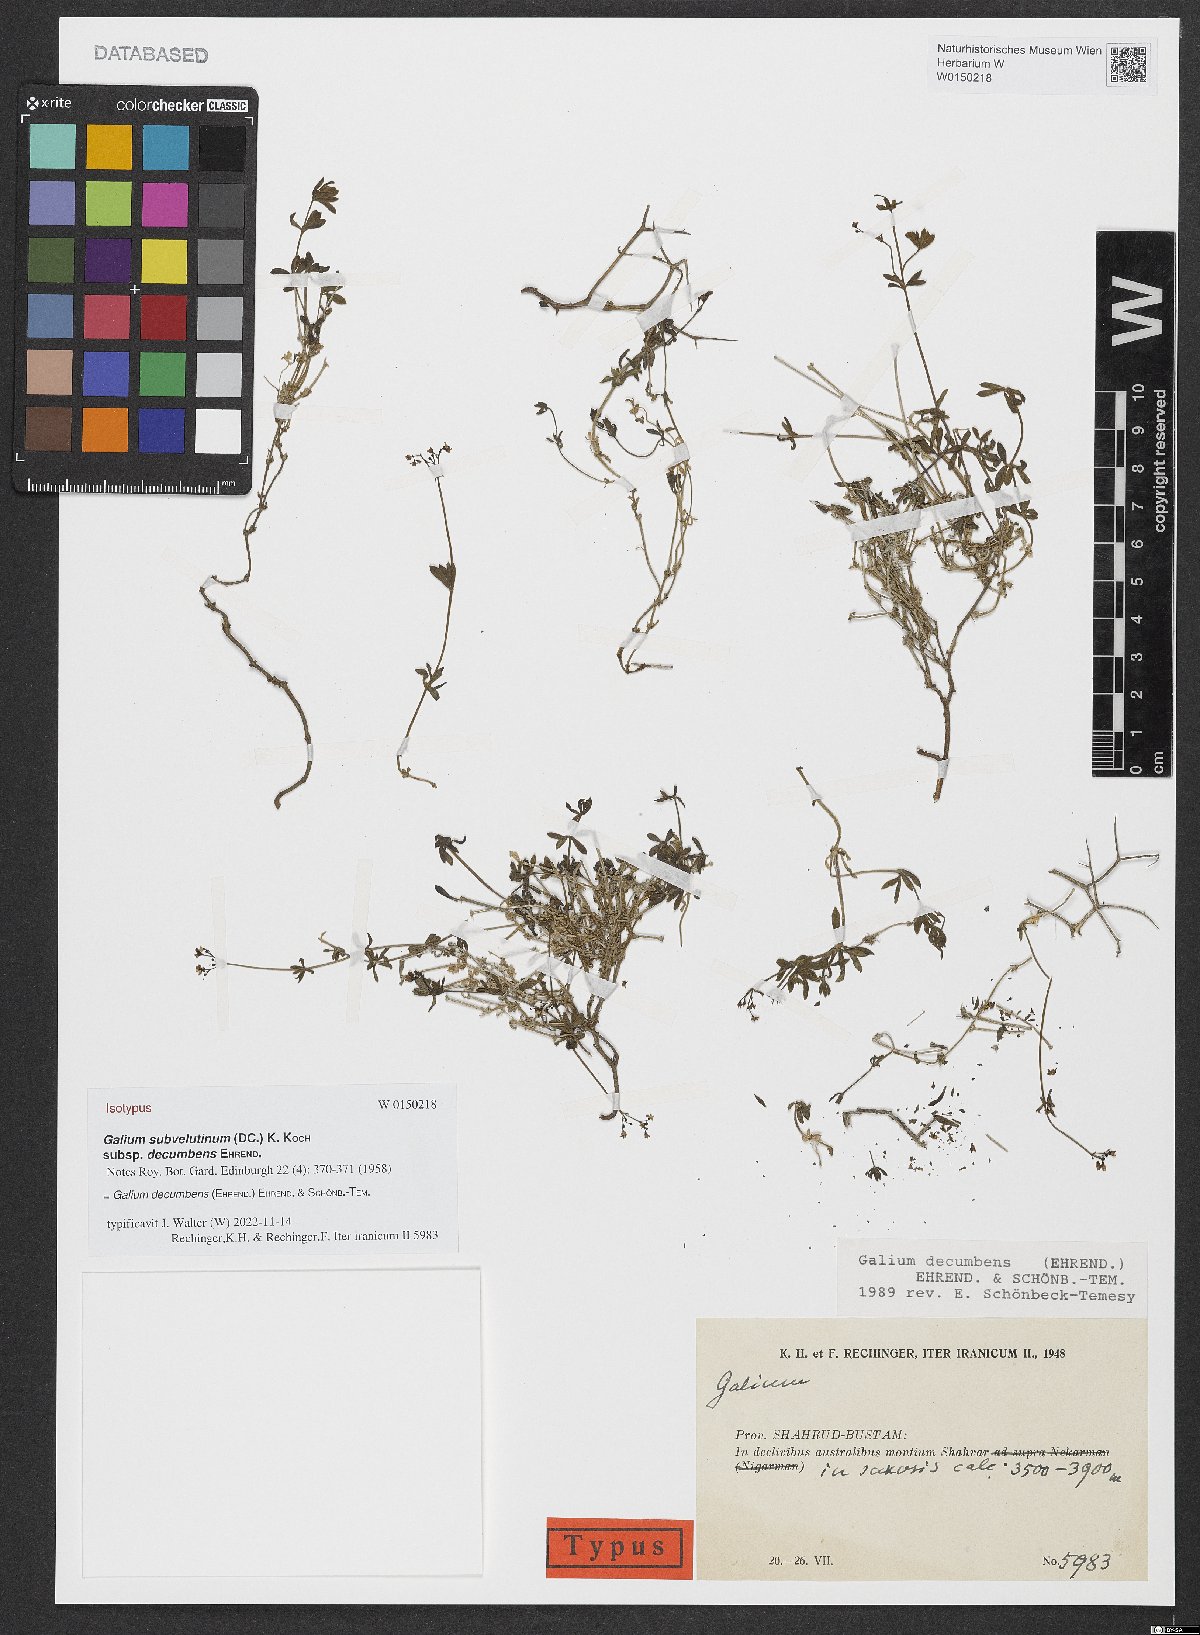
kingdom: Plantae
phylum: Tracheophyta
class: Magnoliopsida
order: Gentianales
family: Rubiaceae
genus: Galium
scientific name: Galium decumbens
